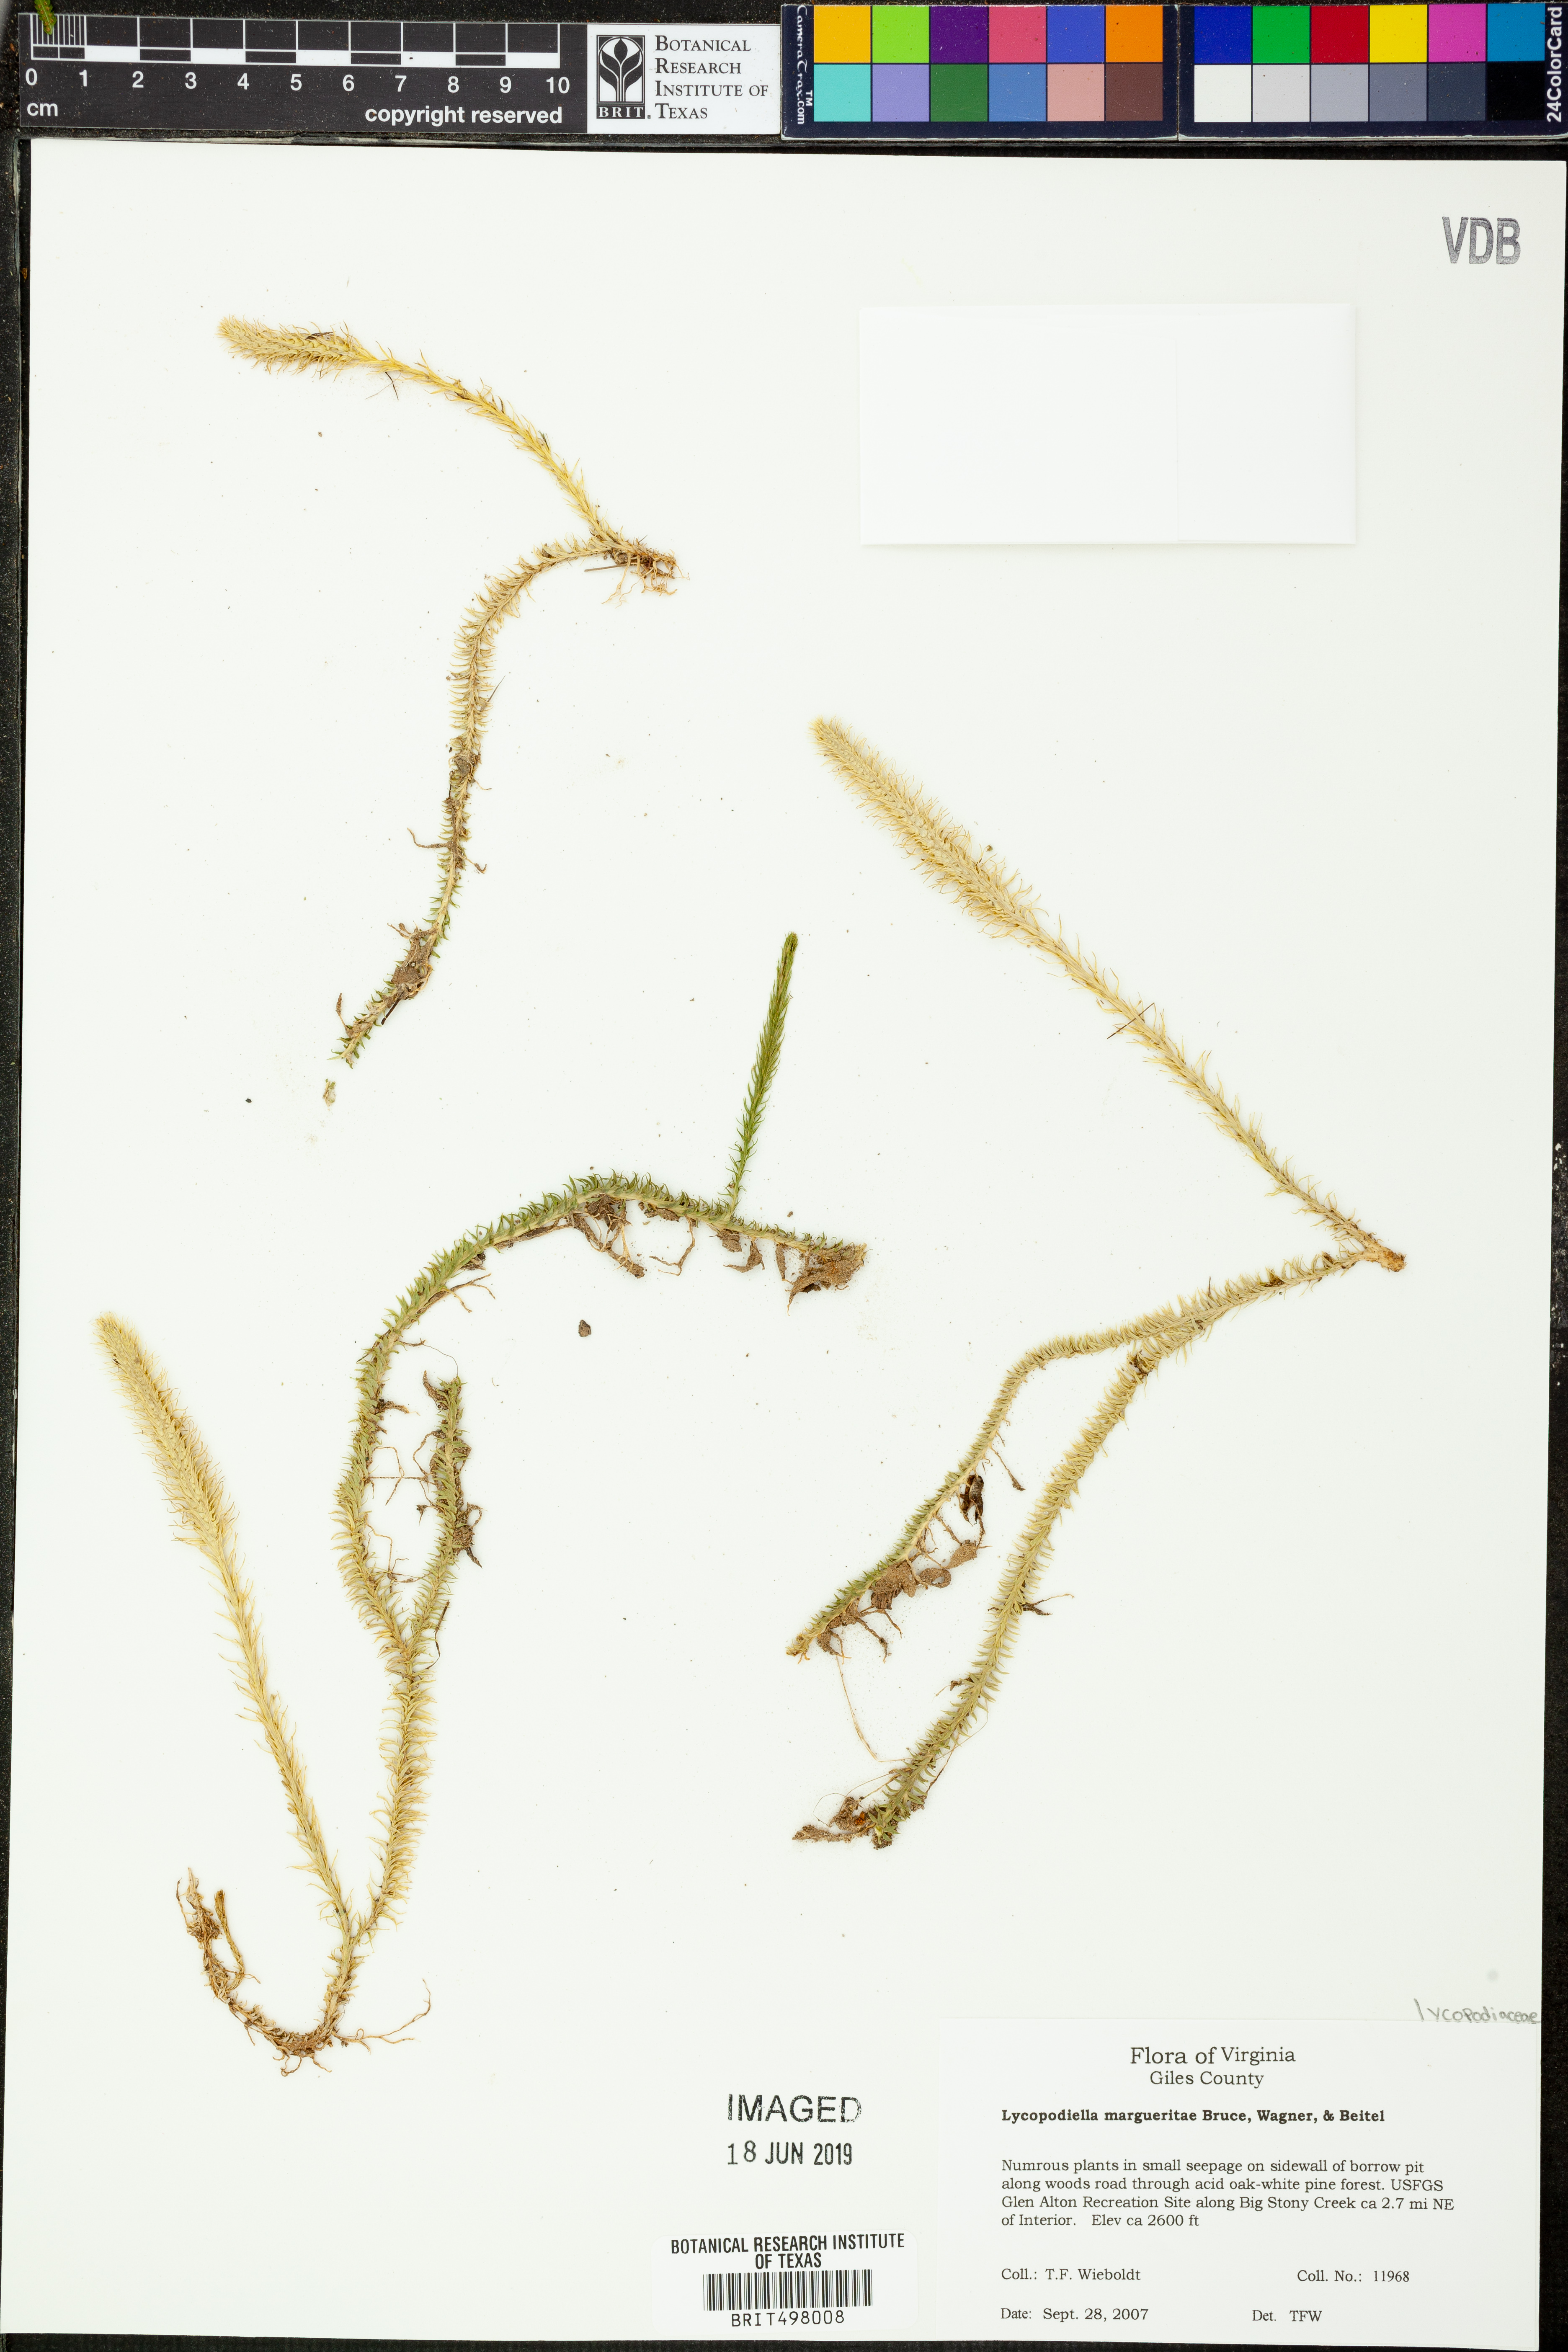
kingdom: Plantae
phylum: Tracheophyta
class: Lycopodiopsida
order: Lycopodiales
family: Lycopodiaceae
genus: Lycopodiella
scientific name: Lycopodiella margueritae
